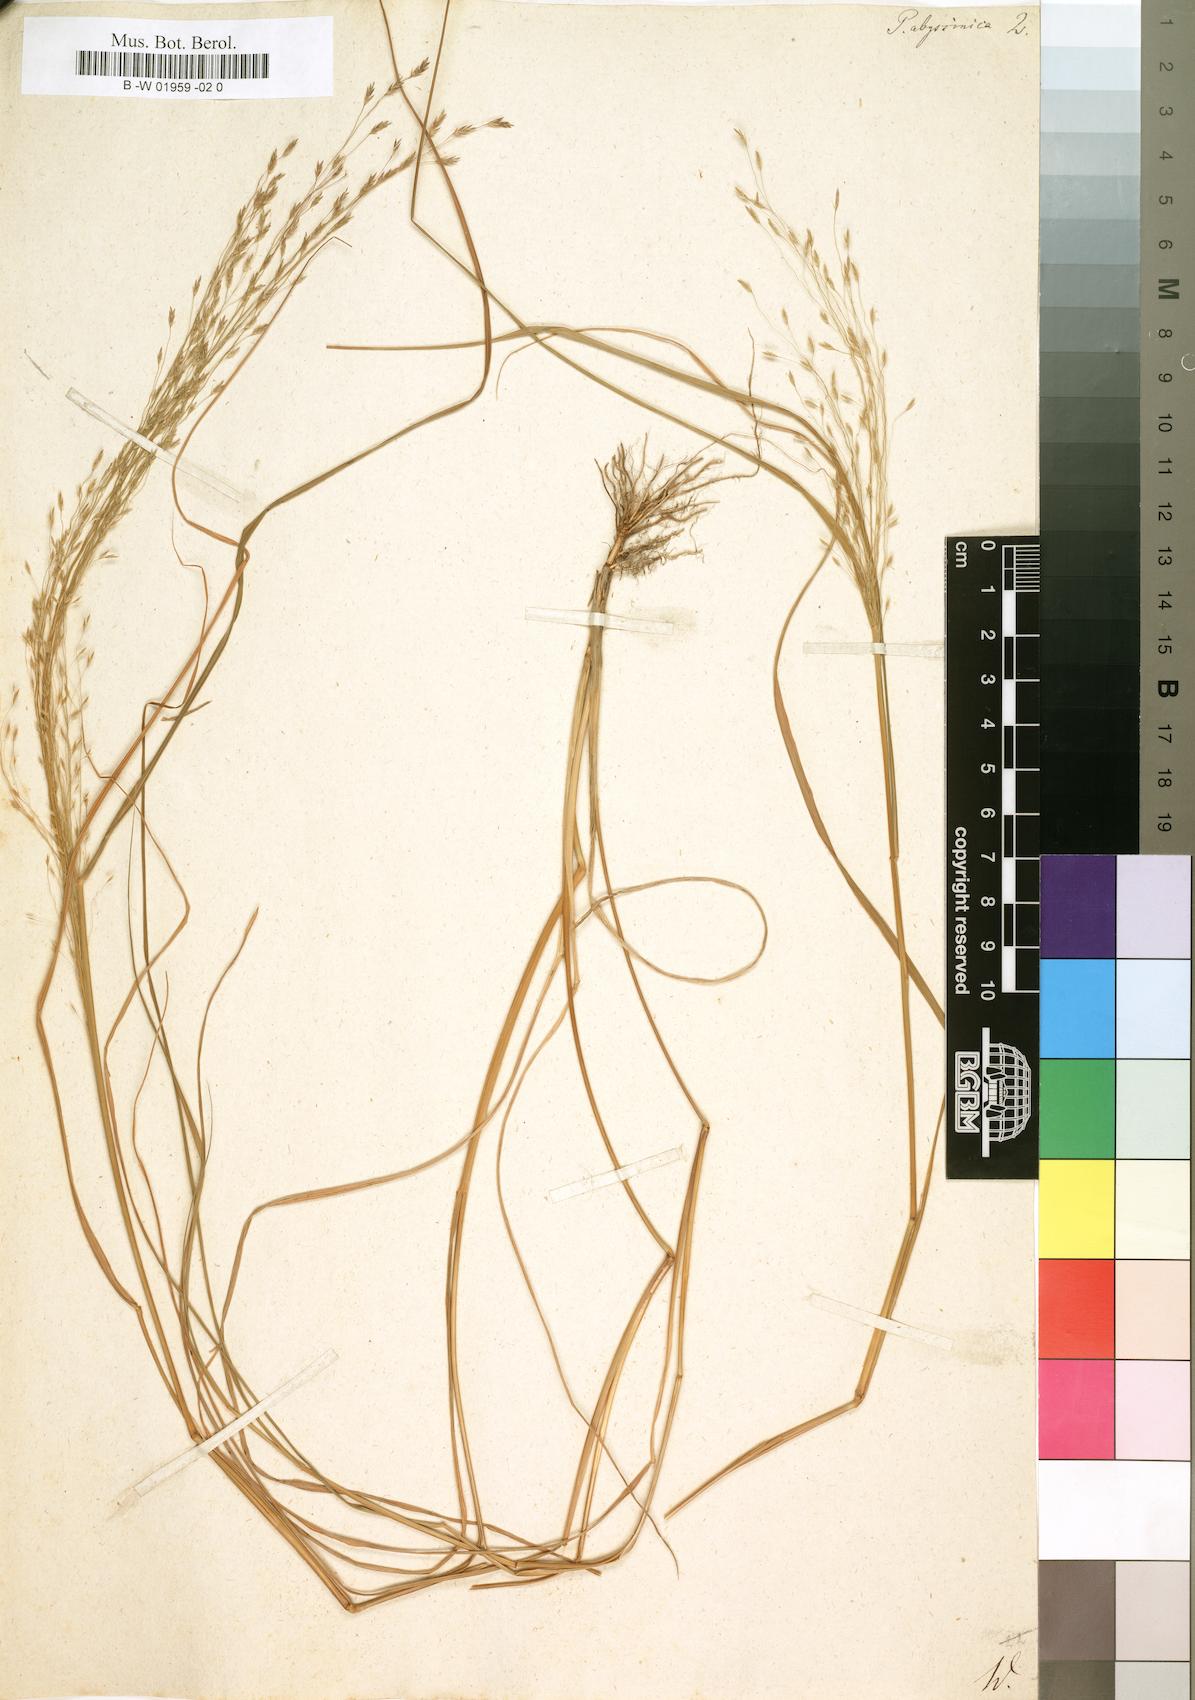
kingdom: Plantae
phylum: Tracheophyta
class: Liliopsida
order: Poales
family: Poaceae
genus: Eragrostis
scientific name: Eragrostis tef
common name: Teff
